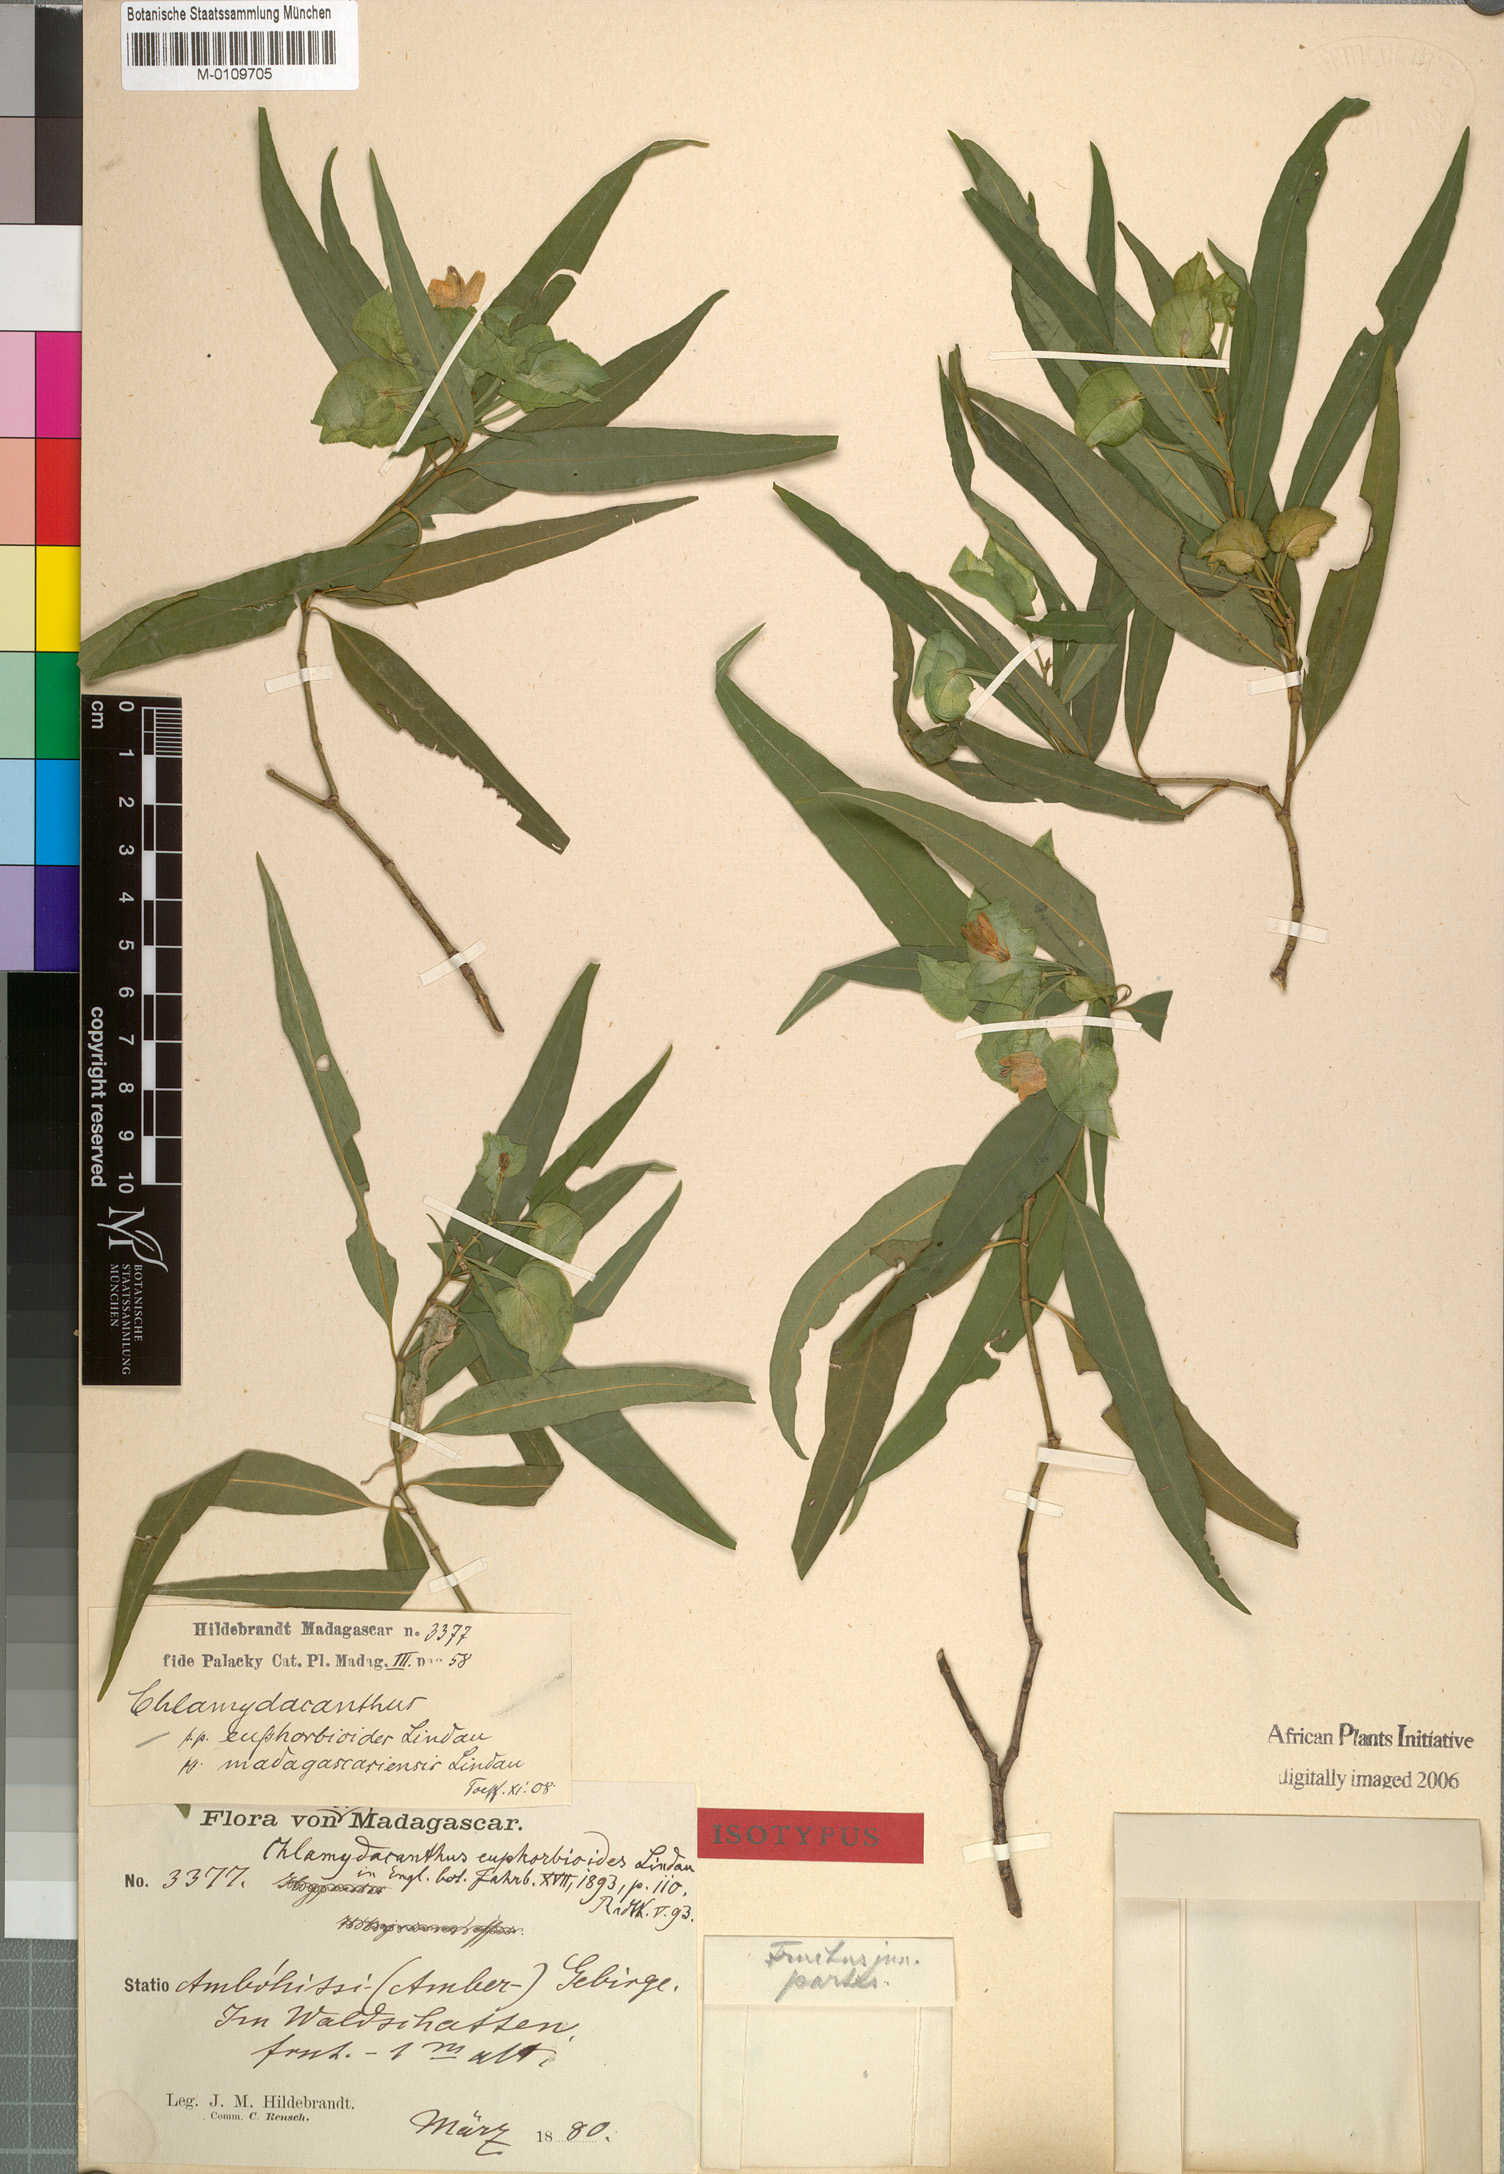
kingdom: Plantae
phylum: Tracheophyta
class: Magnoliopsida
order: Lamiales
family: Acanthaceae
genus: Chlamydacanthus
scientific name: Chlamydacanthus euphorbioides
